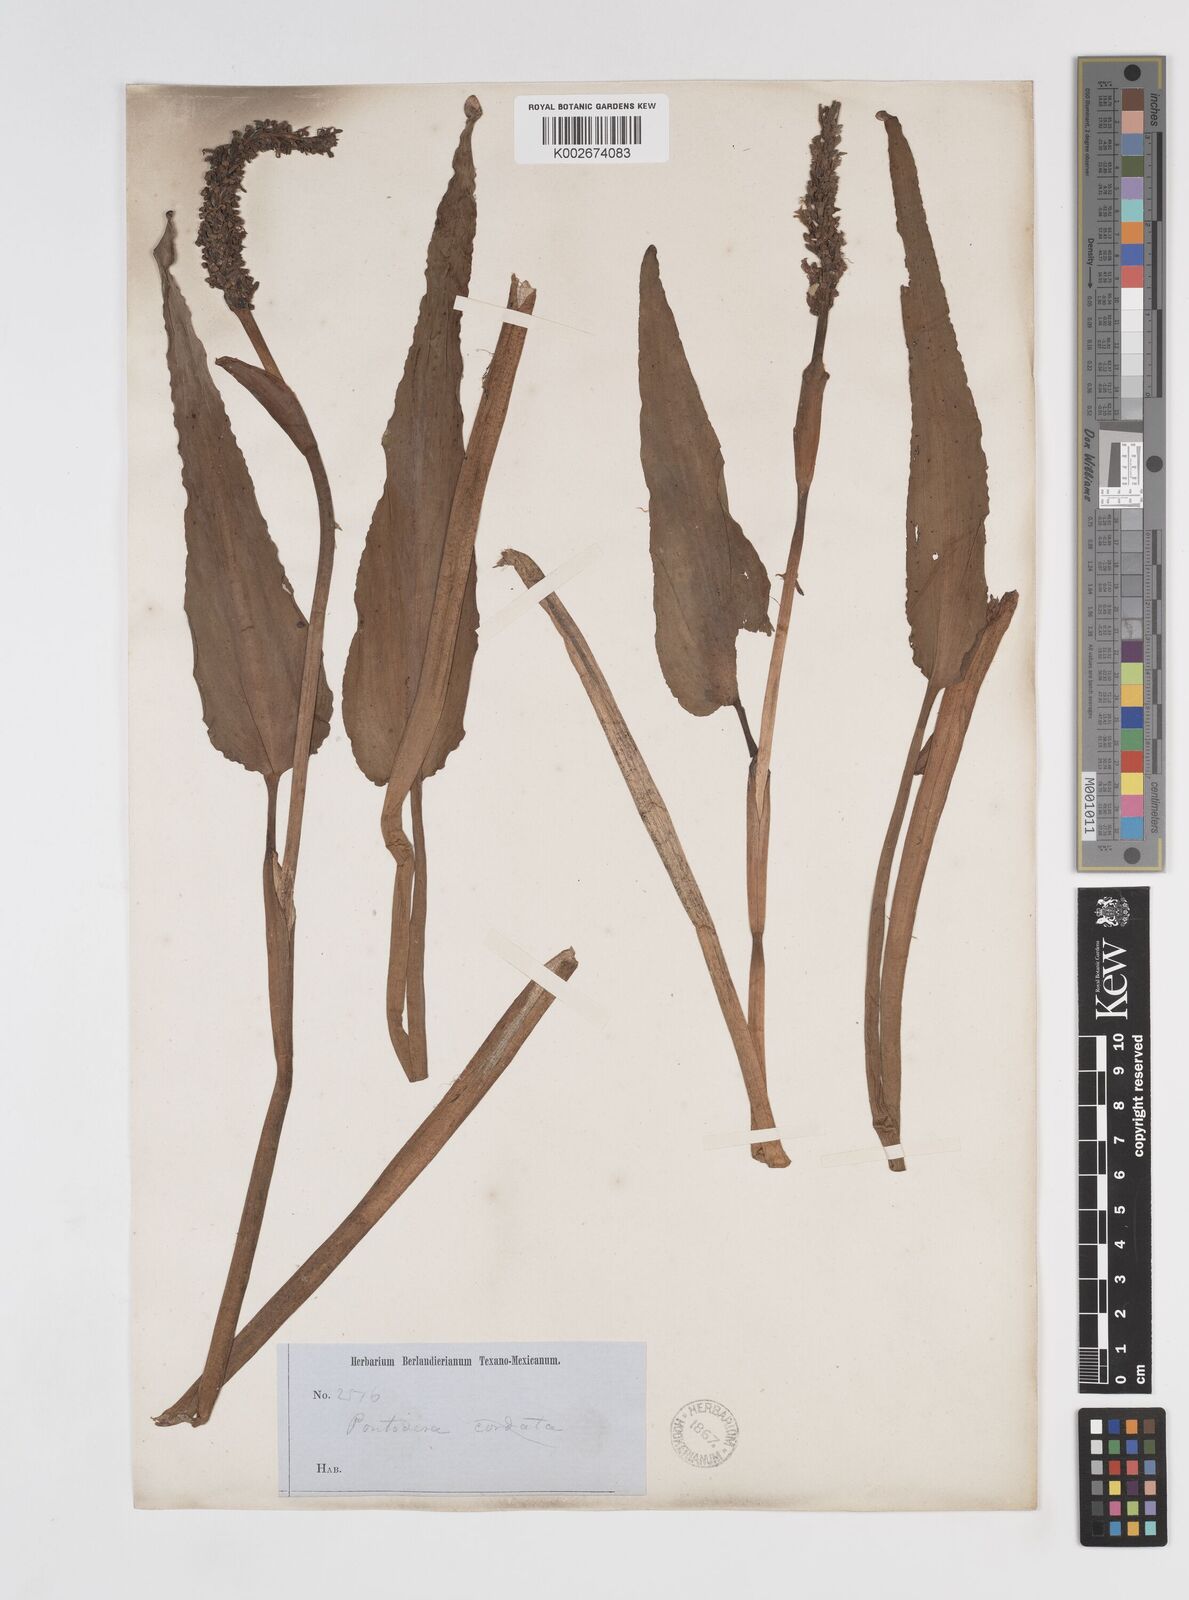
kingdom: Plantae
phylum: Tracheophyta
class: Liliopsida
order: Commelinales
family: Pontederiaceae
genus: Pontederia
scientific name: Pontederia cordata
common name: Pickerelweed
